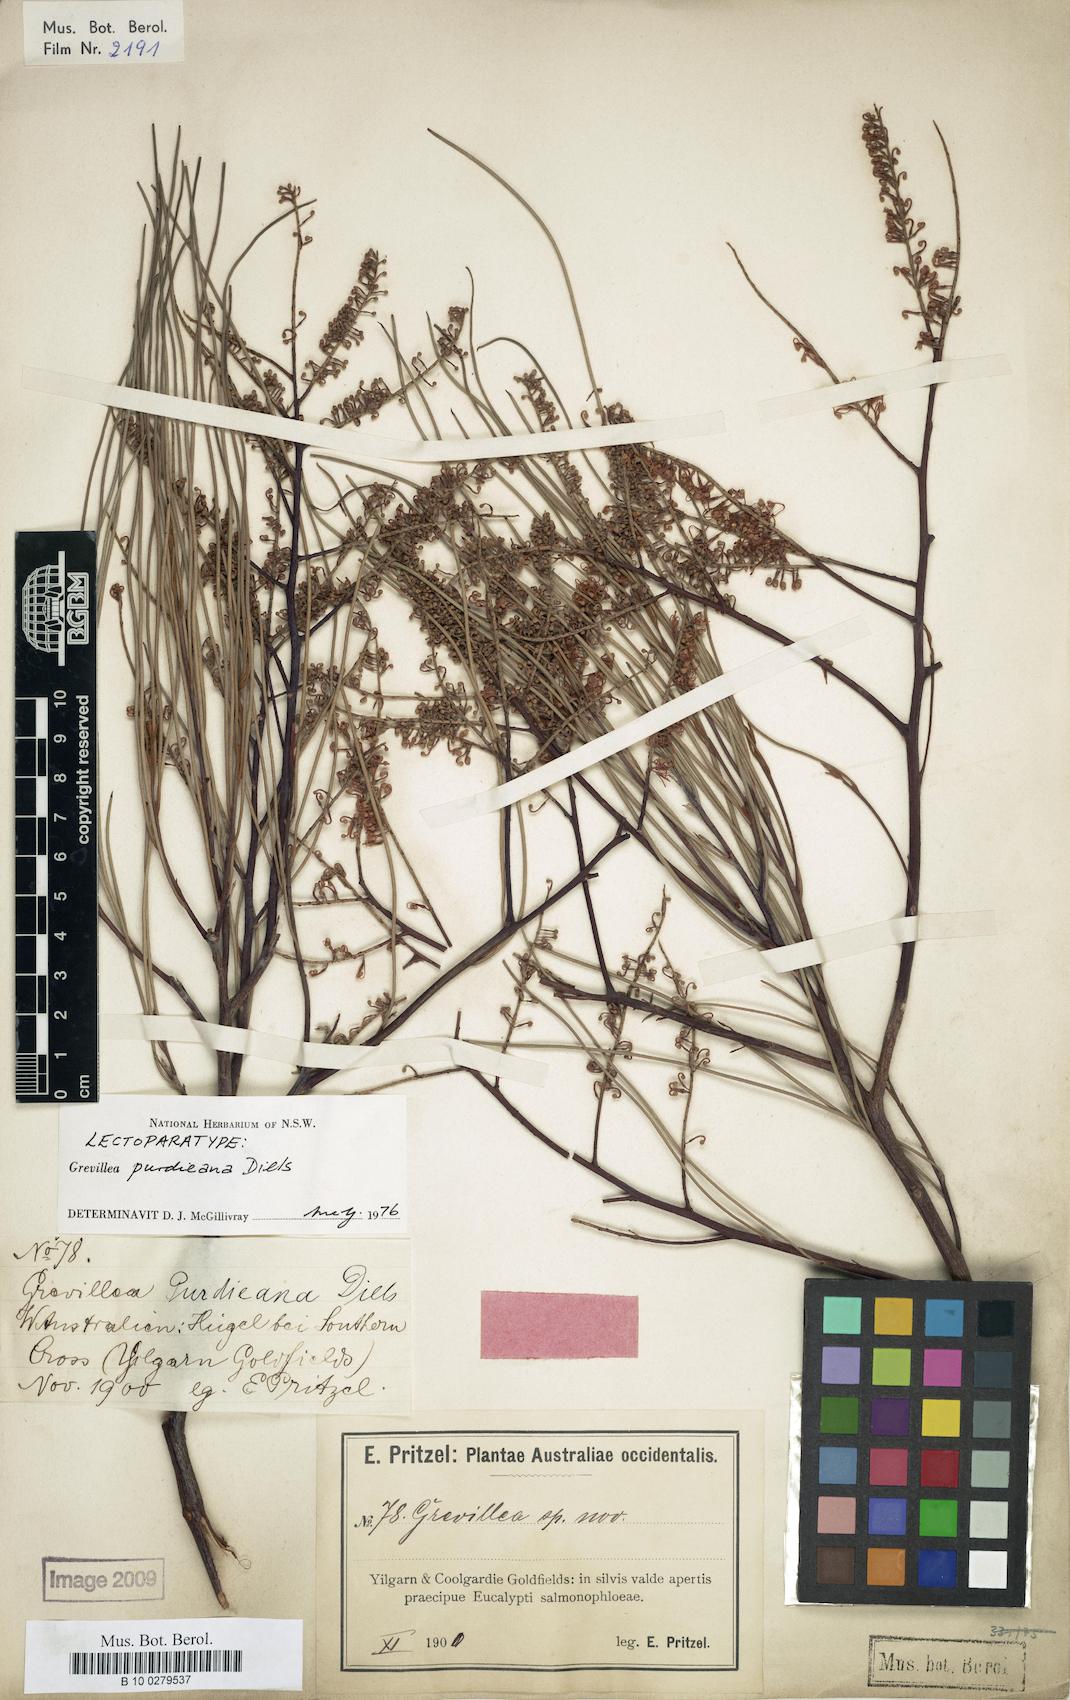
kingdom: Plantae
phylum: Tracheophyta
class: Magnoliopsida
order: Proteales
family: Proteaceae
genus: Grevillea
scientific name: Grevillea nematophylla
